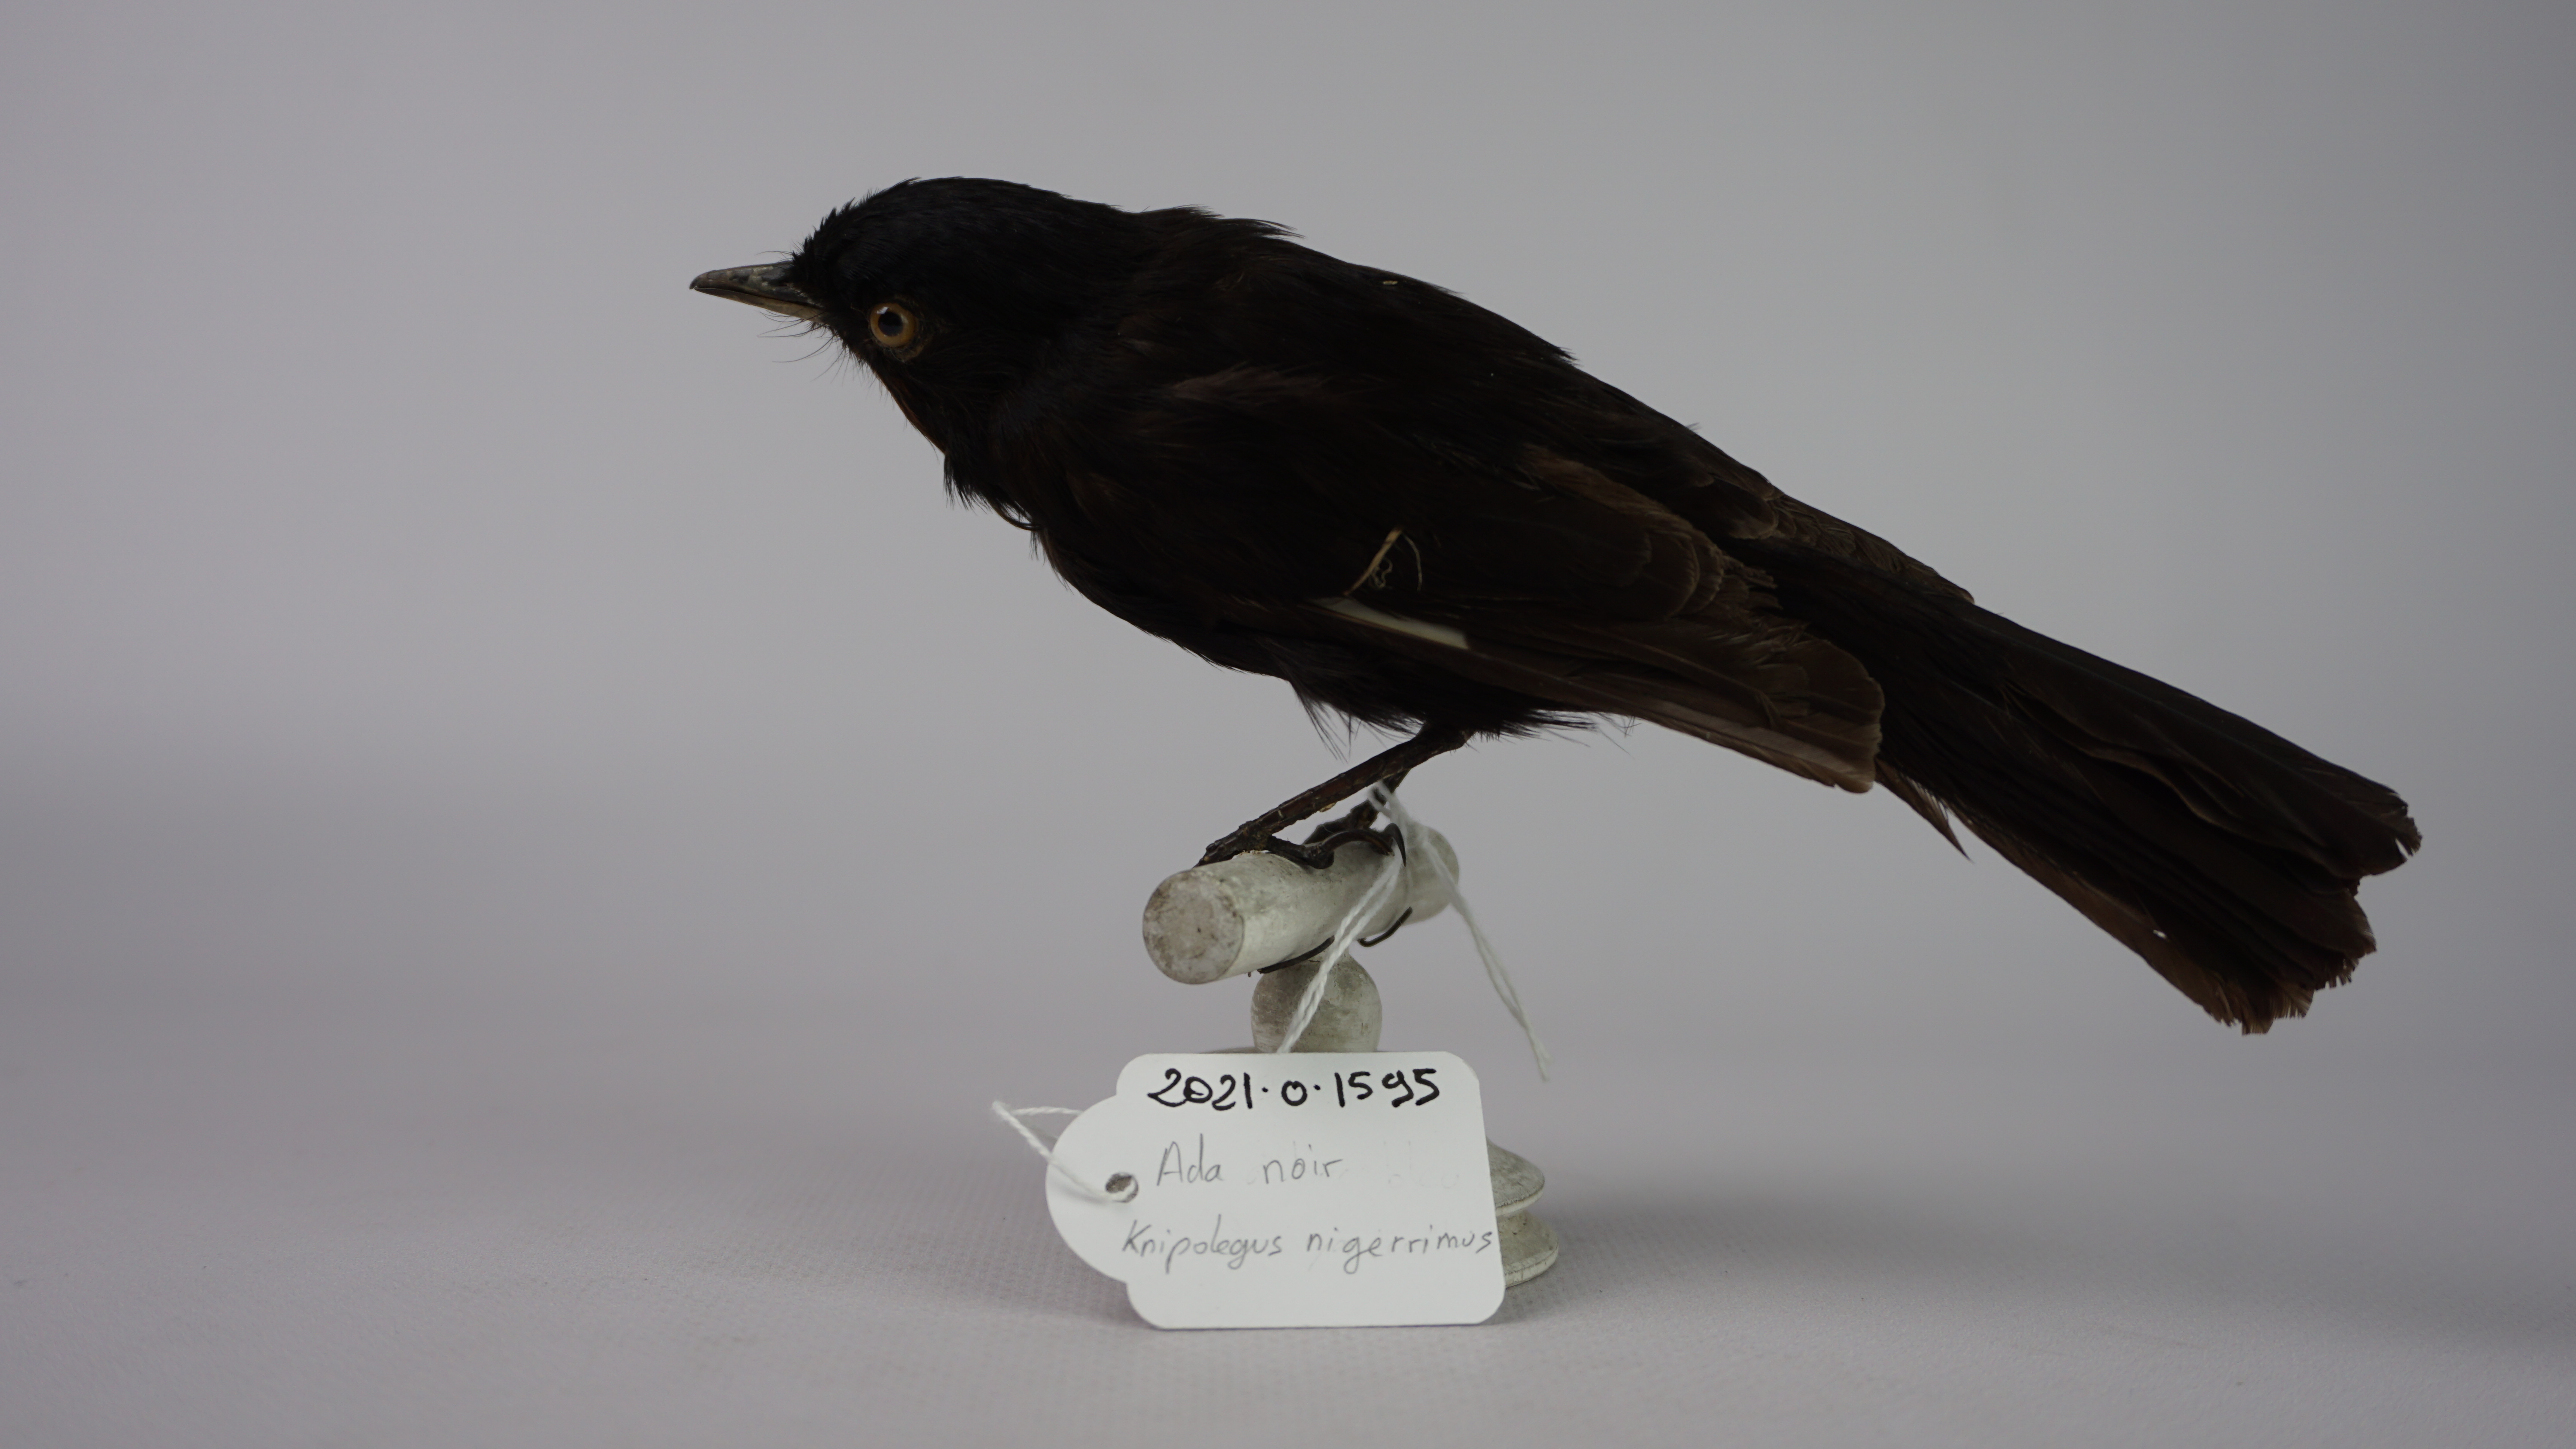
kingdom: Animalia
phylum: Chordata
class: Aves
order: Passeriformes
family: Tyrannidae
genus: Knipolegus
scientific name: Knipolegus nigerrimus
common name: Velvety black tyrant
